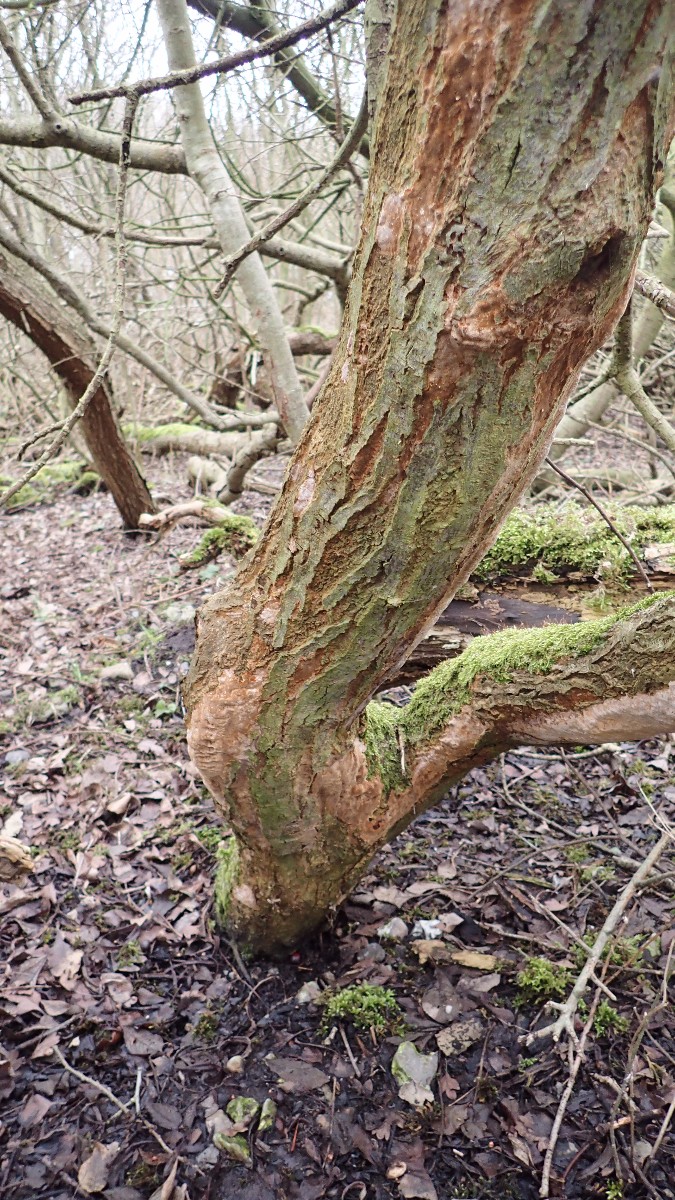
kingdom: Fungi
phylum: Basidiomycota
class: Agaricomycetes
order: Hymenochaetales
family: Hymenochaetaceae
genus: Fuscoporia
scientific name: Fuscoporia ferrea
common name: skorpe-ildporesvamp
